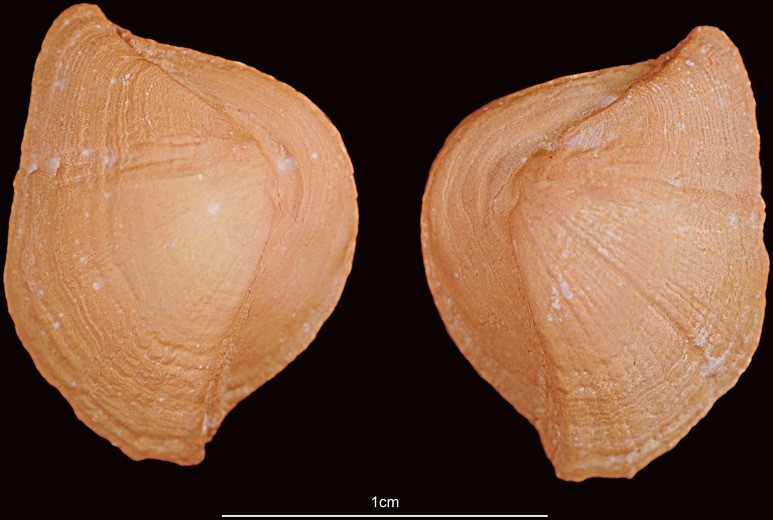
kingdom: Animalia
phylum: Chordata
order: Siluriformes
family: Ariidae
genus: Netuma
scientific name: Netuma thalassina
